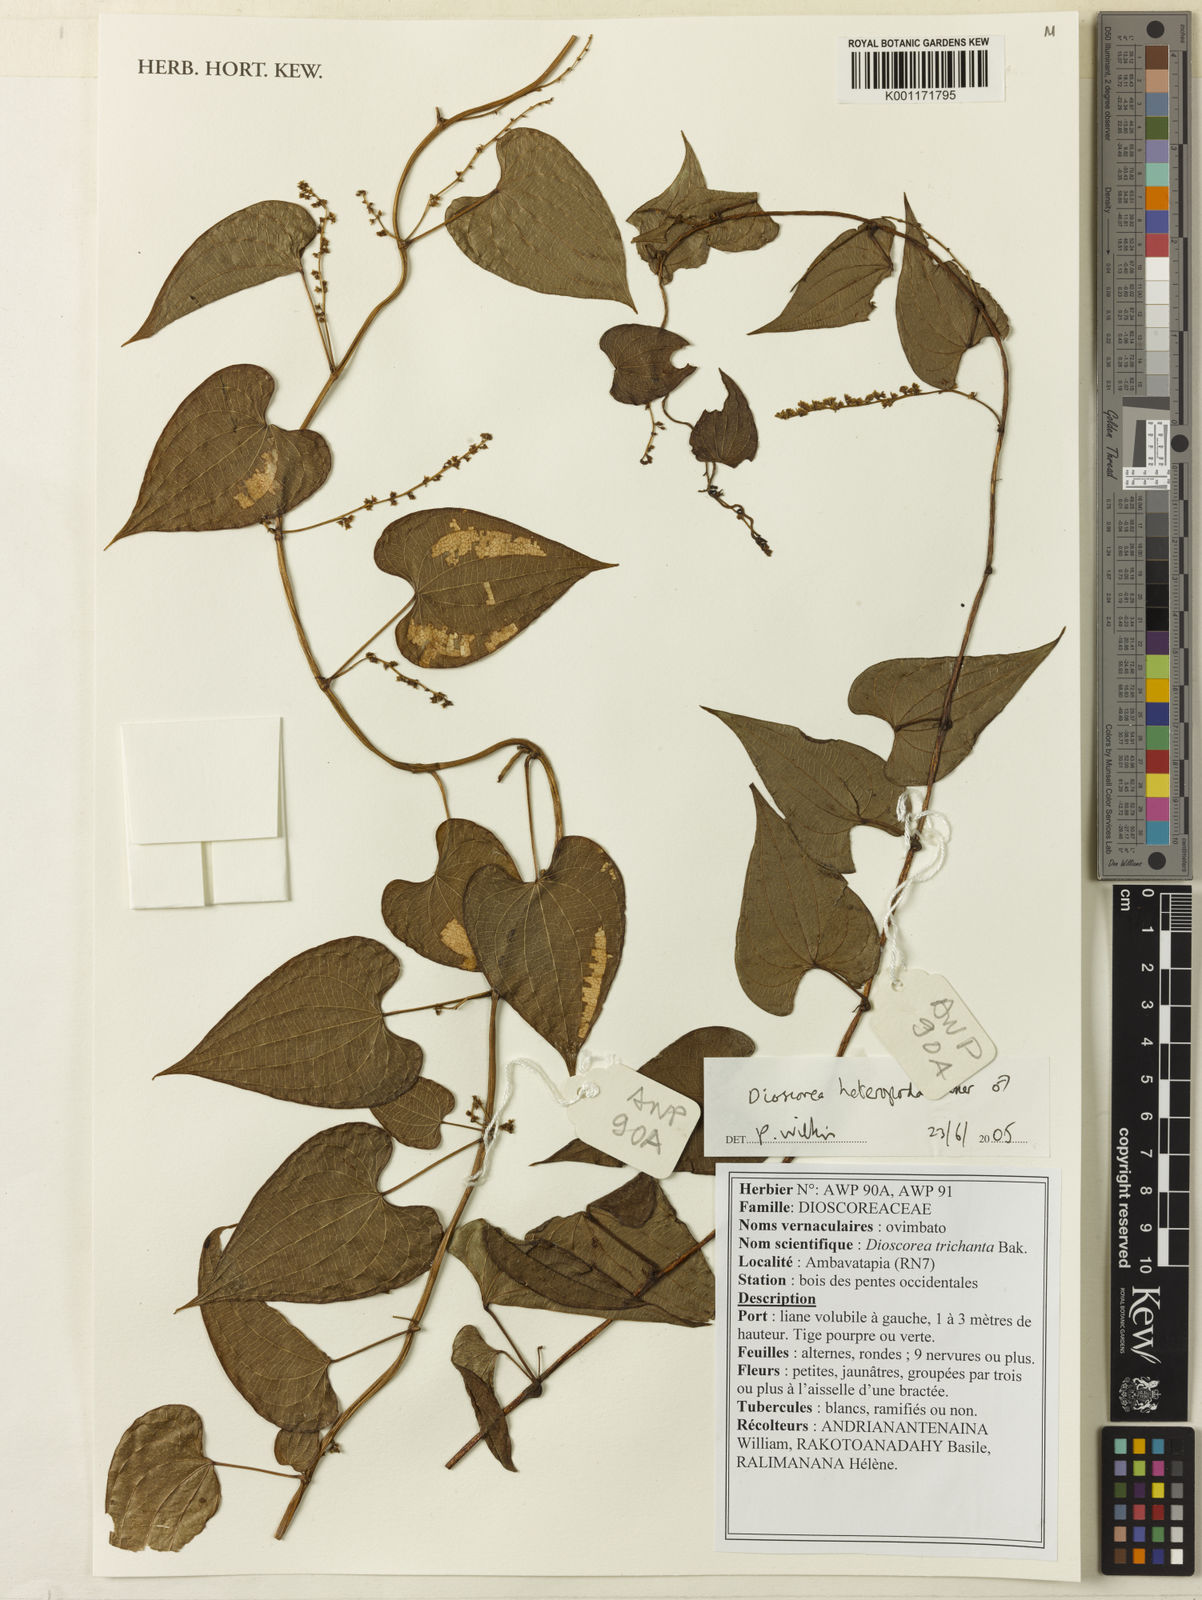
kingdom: Plantae
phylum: Tracheophyta
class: Liliopsida
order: Dioscoreales
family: Dioscoreaceae
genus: Dioscorea
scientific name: Dioscorea heteropoda
